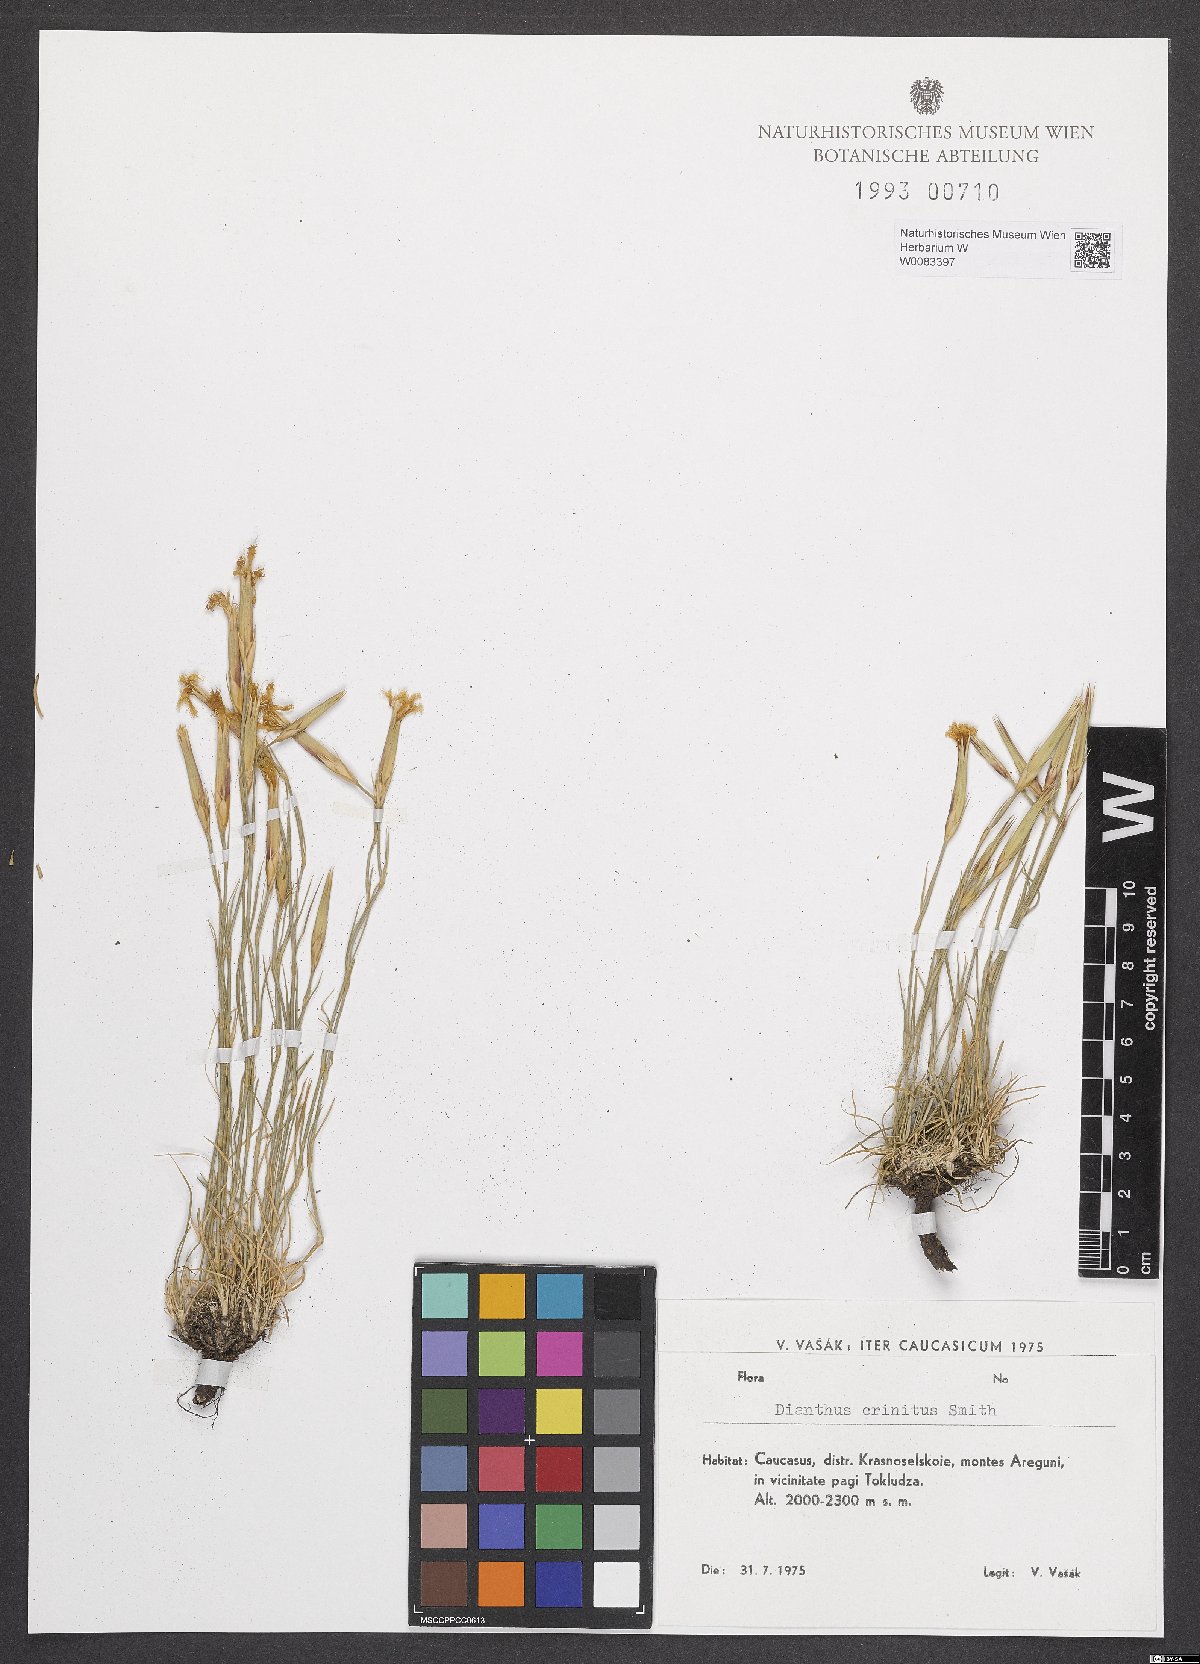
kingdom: Plantae
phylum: Tracheophyta
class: Magnoliopsida
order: Caryophyllales
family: Caryophyllaceae
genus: Dianthus
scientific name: Dianthus crinitus
